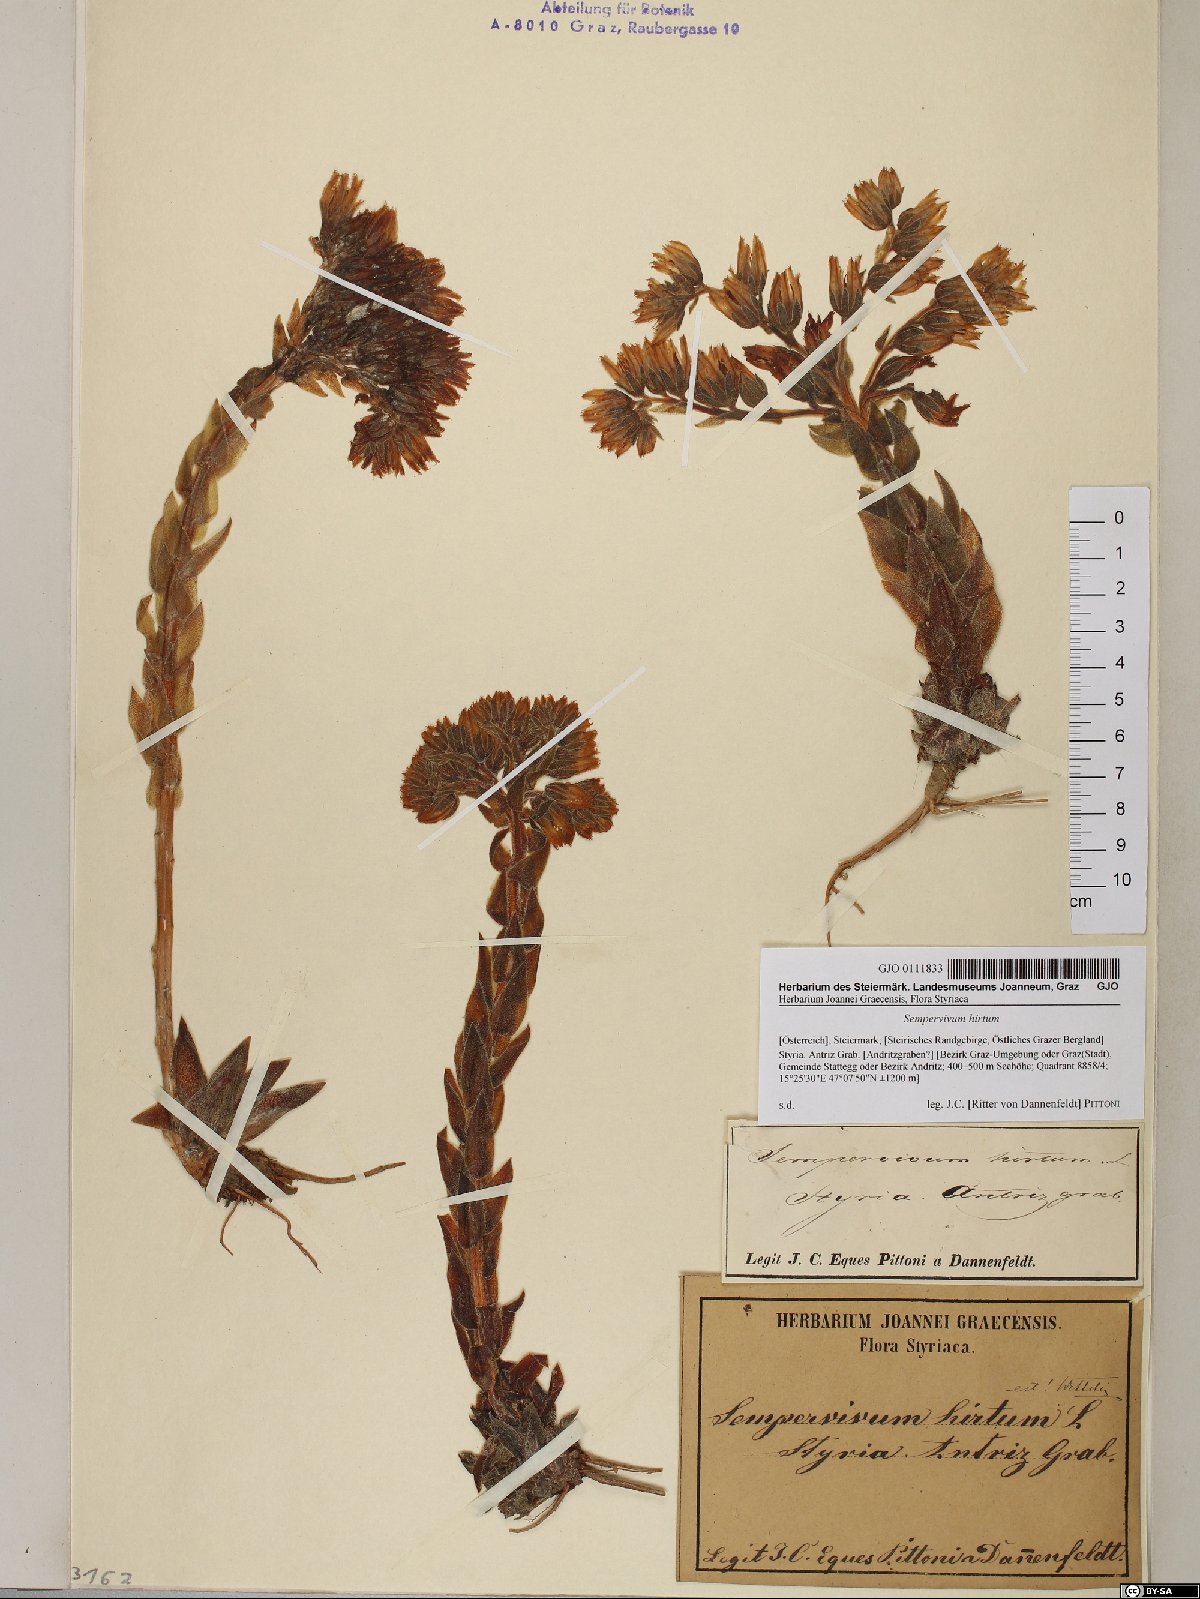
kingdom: Plantae
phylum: Tracheophyta
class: Magnoliopsida
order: Saxifragales
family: Crassulaceae
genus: Sempervivum
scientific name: Sempervivum globiferum
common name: Rolling hen-and-chicks
